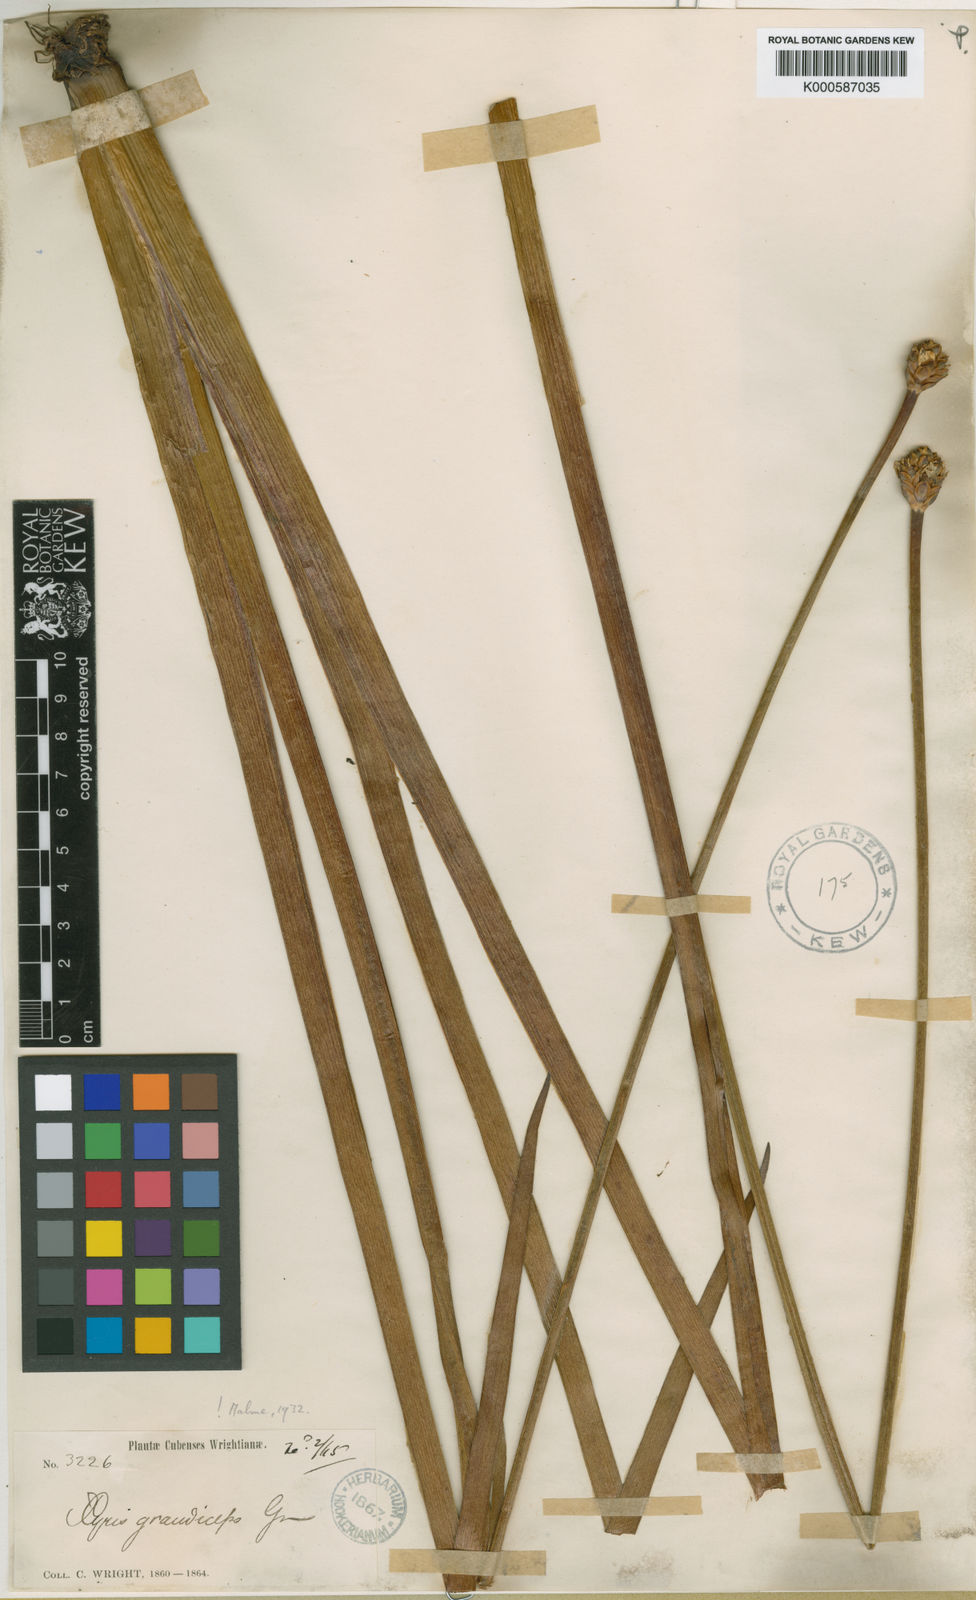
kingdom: Plantae
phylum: Tracheophyta
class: Liliopsida
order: Poales
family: Xyridaceae
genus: Xyris
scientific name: Xyris grandiceps
